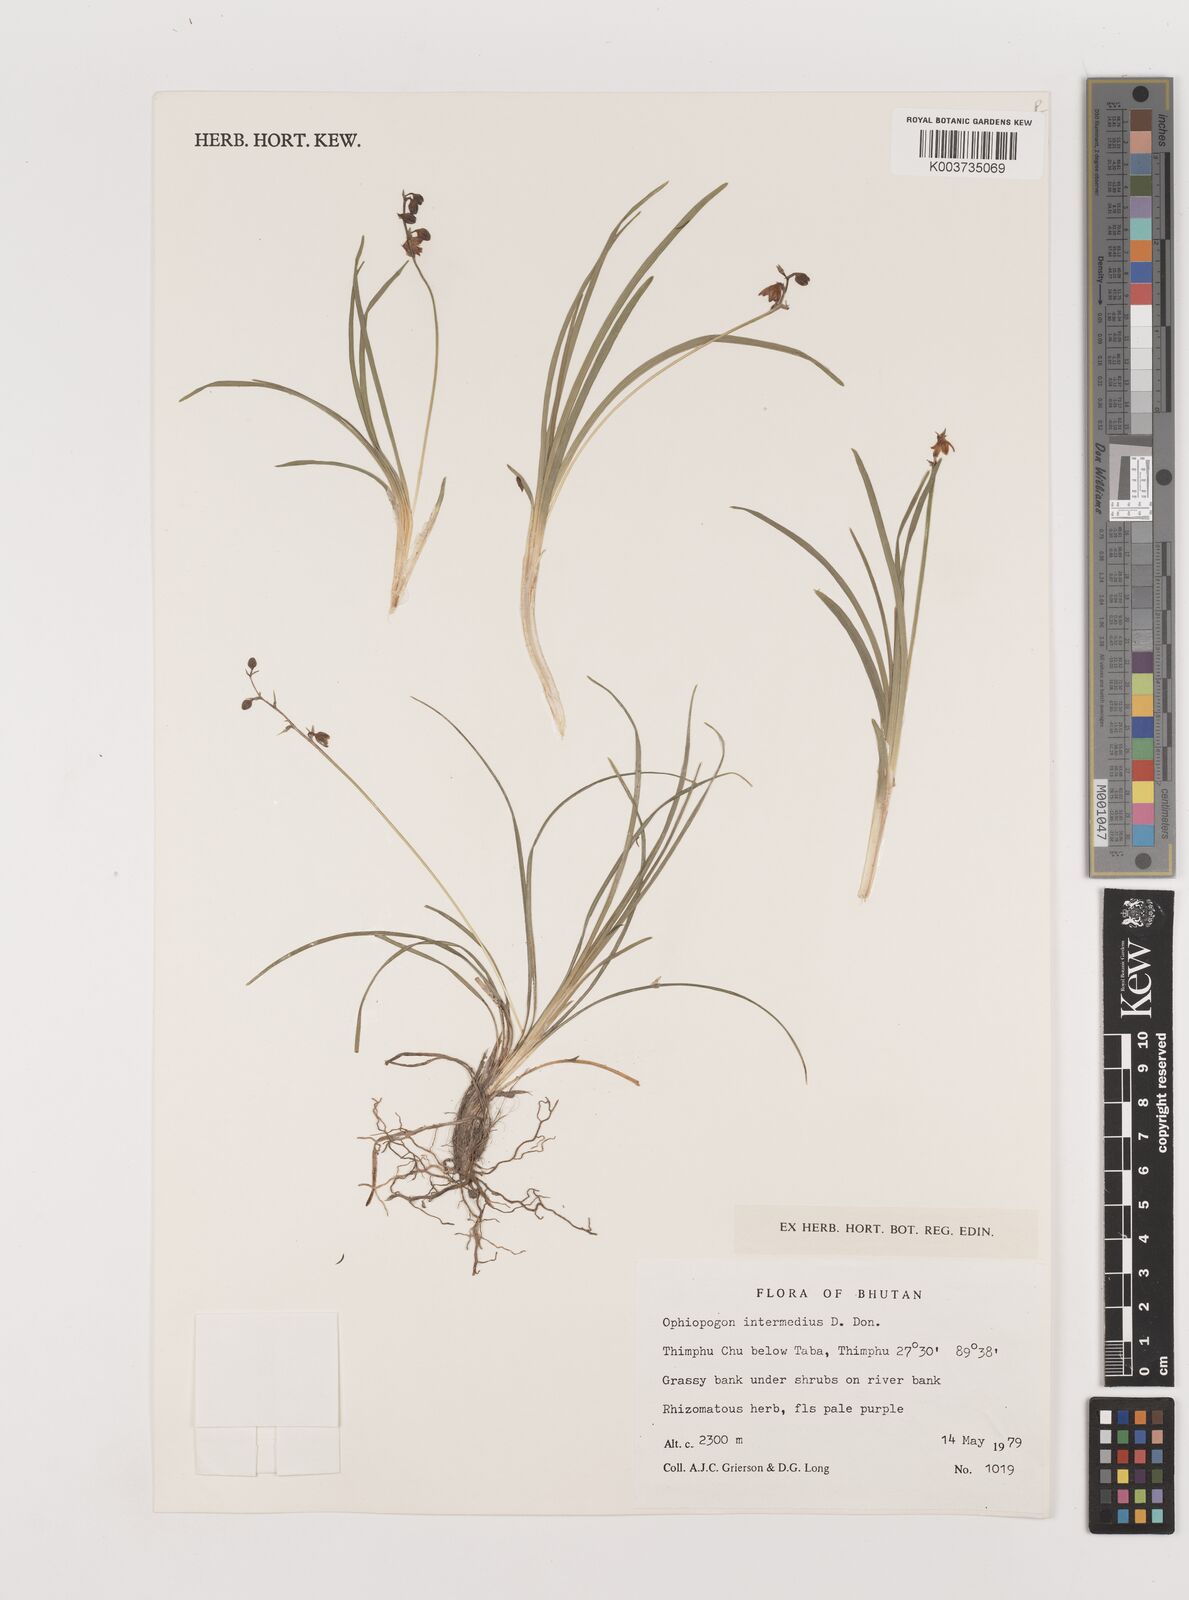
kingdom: Plantae
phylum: Tracheophyta
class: Liliopsida
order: Asparagales
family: Asparagaceae
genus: Ophiopogon
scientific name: Ophiopogon bodinieri
